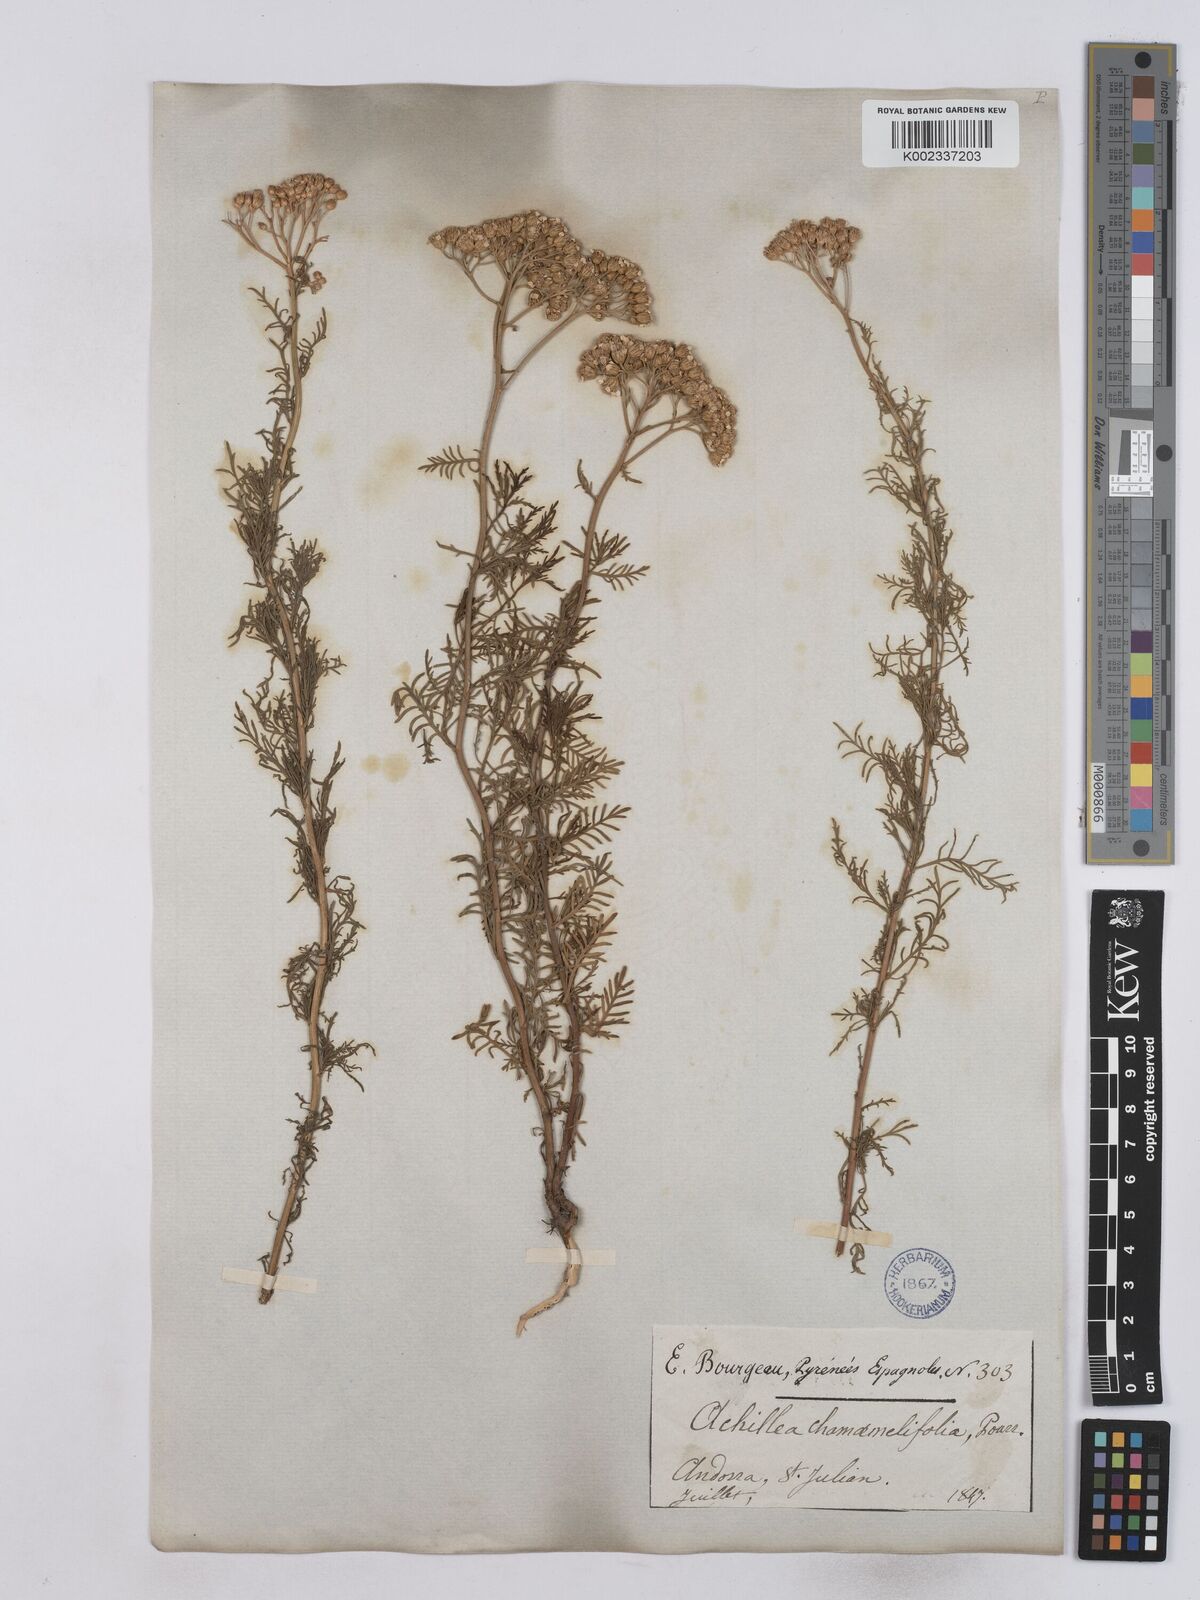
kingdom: Plantae
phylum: Tracheophyta
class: Magnoliopsida
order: Asterales
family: Asteraceae
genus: Achillea
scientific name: Achillea chamaemelifolia
